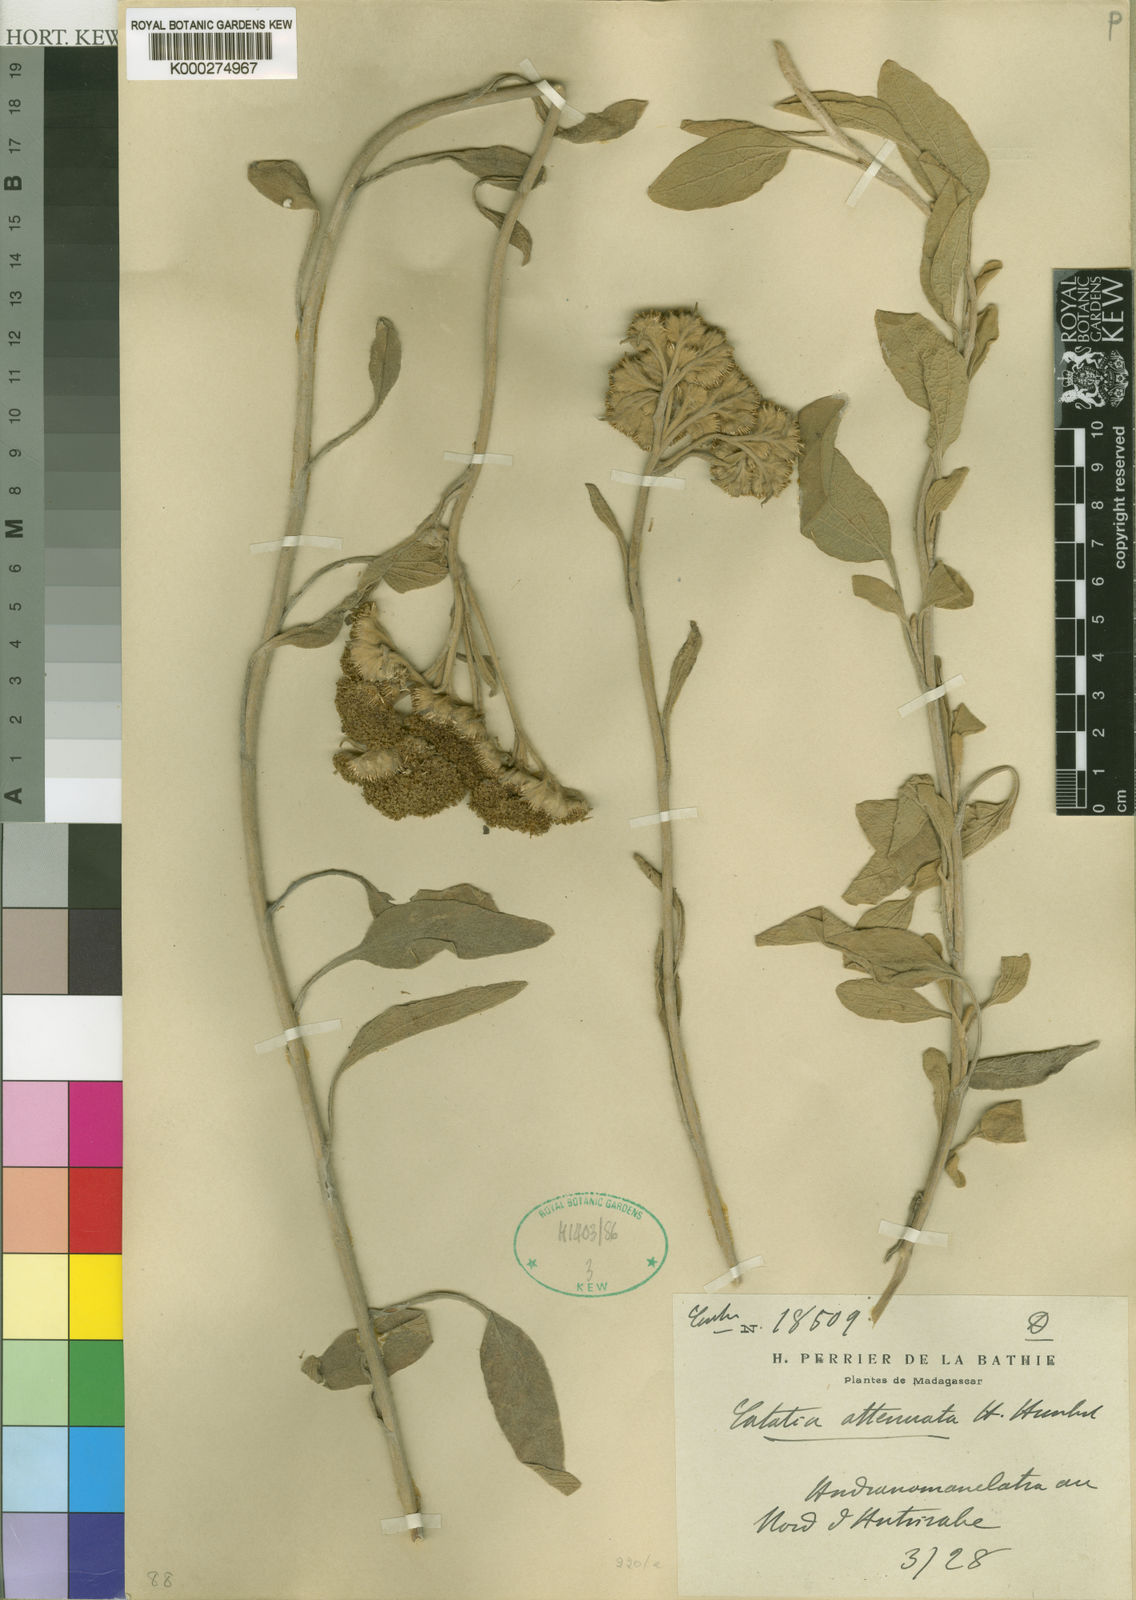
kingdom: Plantae
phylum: Tracheophyta
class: Magnoliopsida
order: Asterales
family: Asteraceae
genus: Catatia
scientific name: Catatia attenuata
